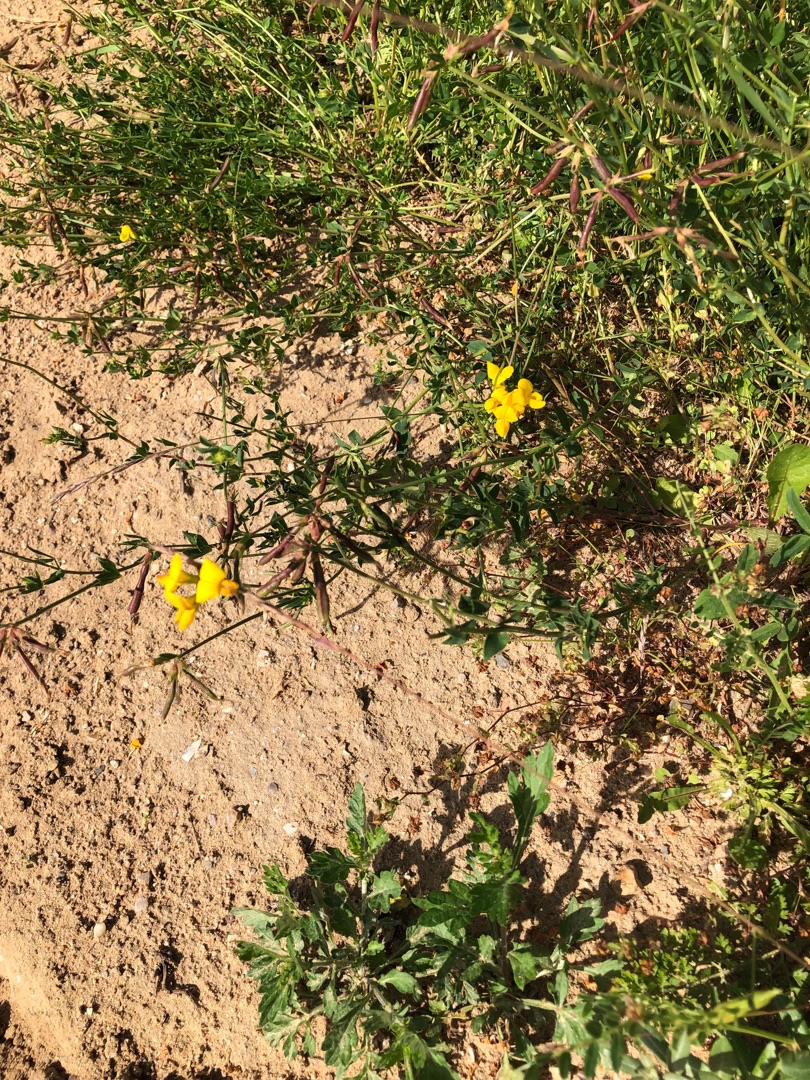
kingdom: Plantae
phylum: Tracheophyta
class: Magnoliopsida
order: Fabales
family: Fabaceae
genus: Lotus
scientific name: Lotus corniculatus
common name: Almindelig kællingetand
